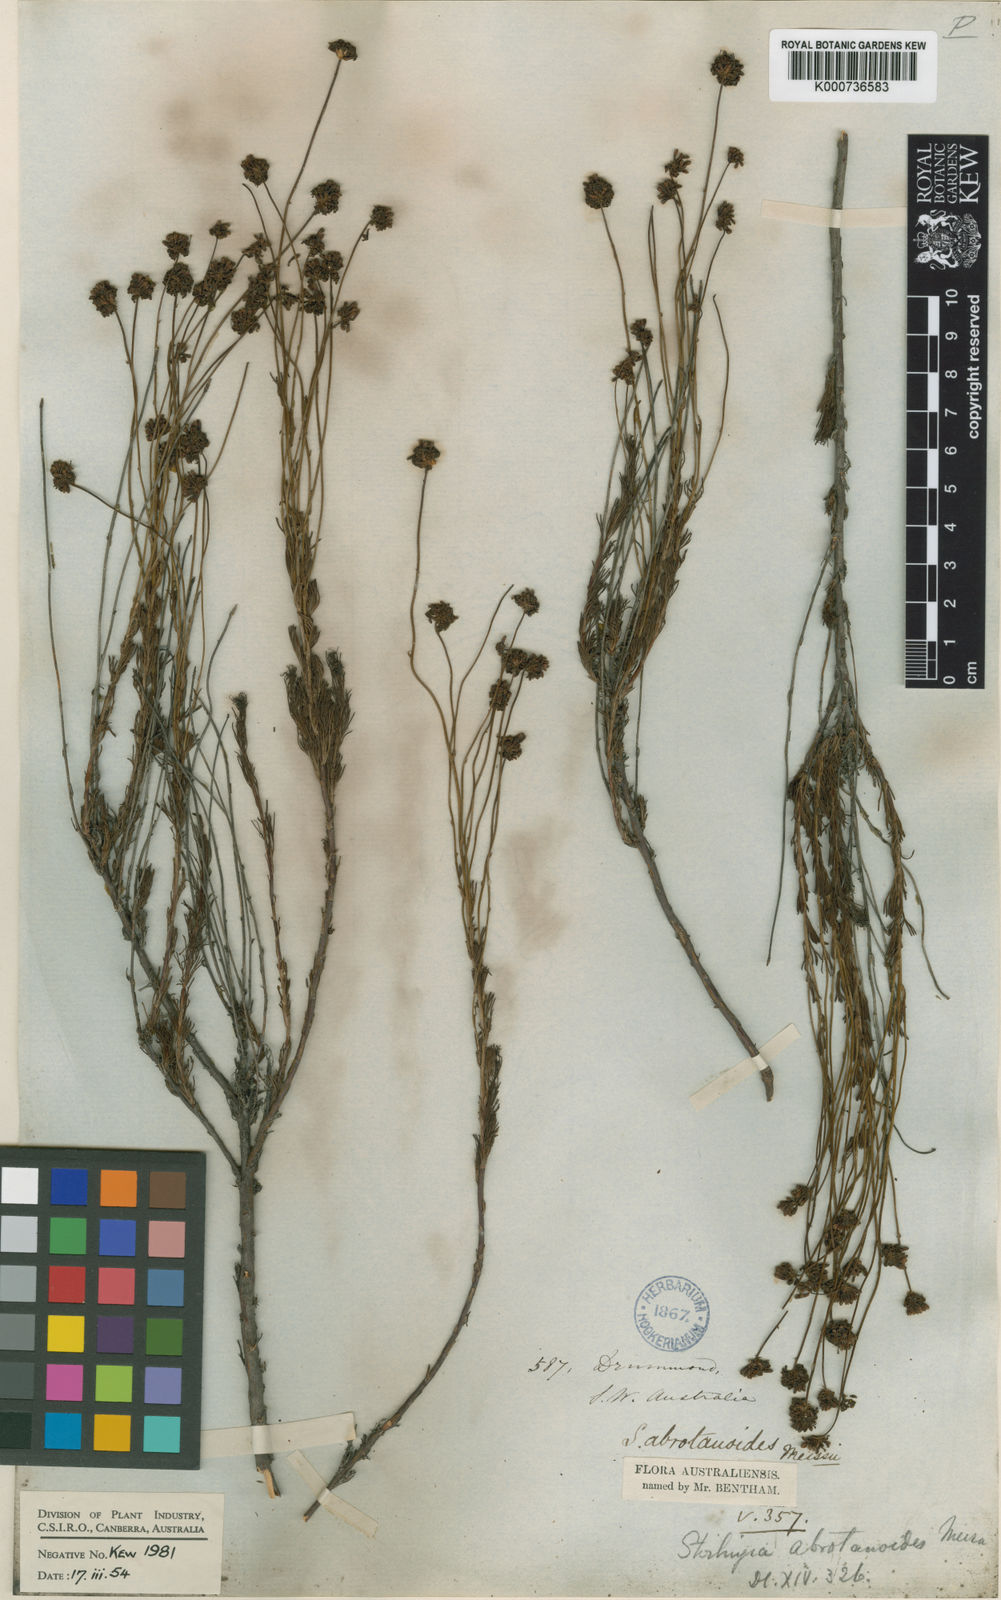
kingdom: Plantae
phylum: Tracheophyta
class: Magnoliopsida
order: Proteales
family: Proteaceae
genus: Stirlingia
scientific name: Stirlingia abrotanoides
